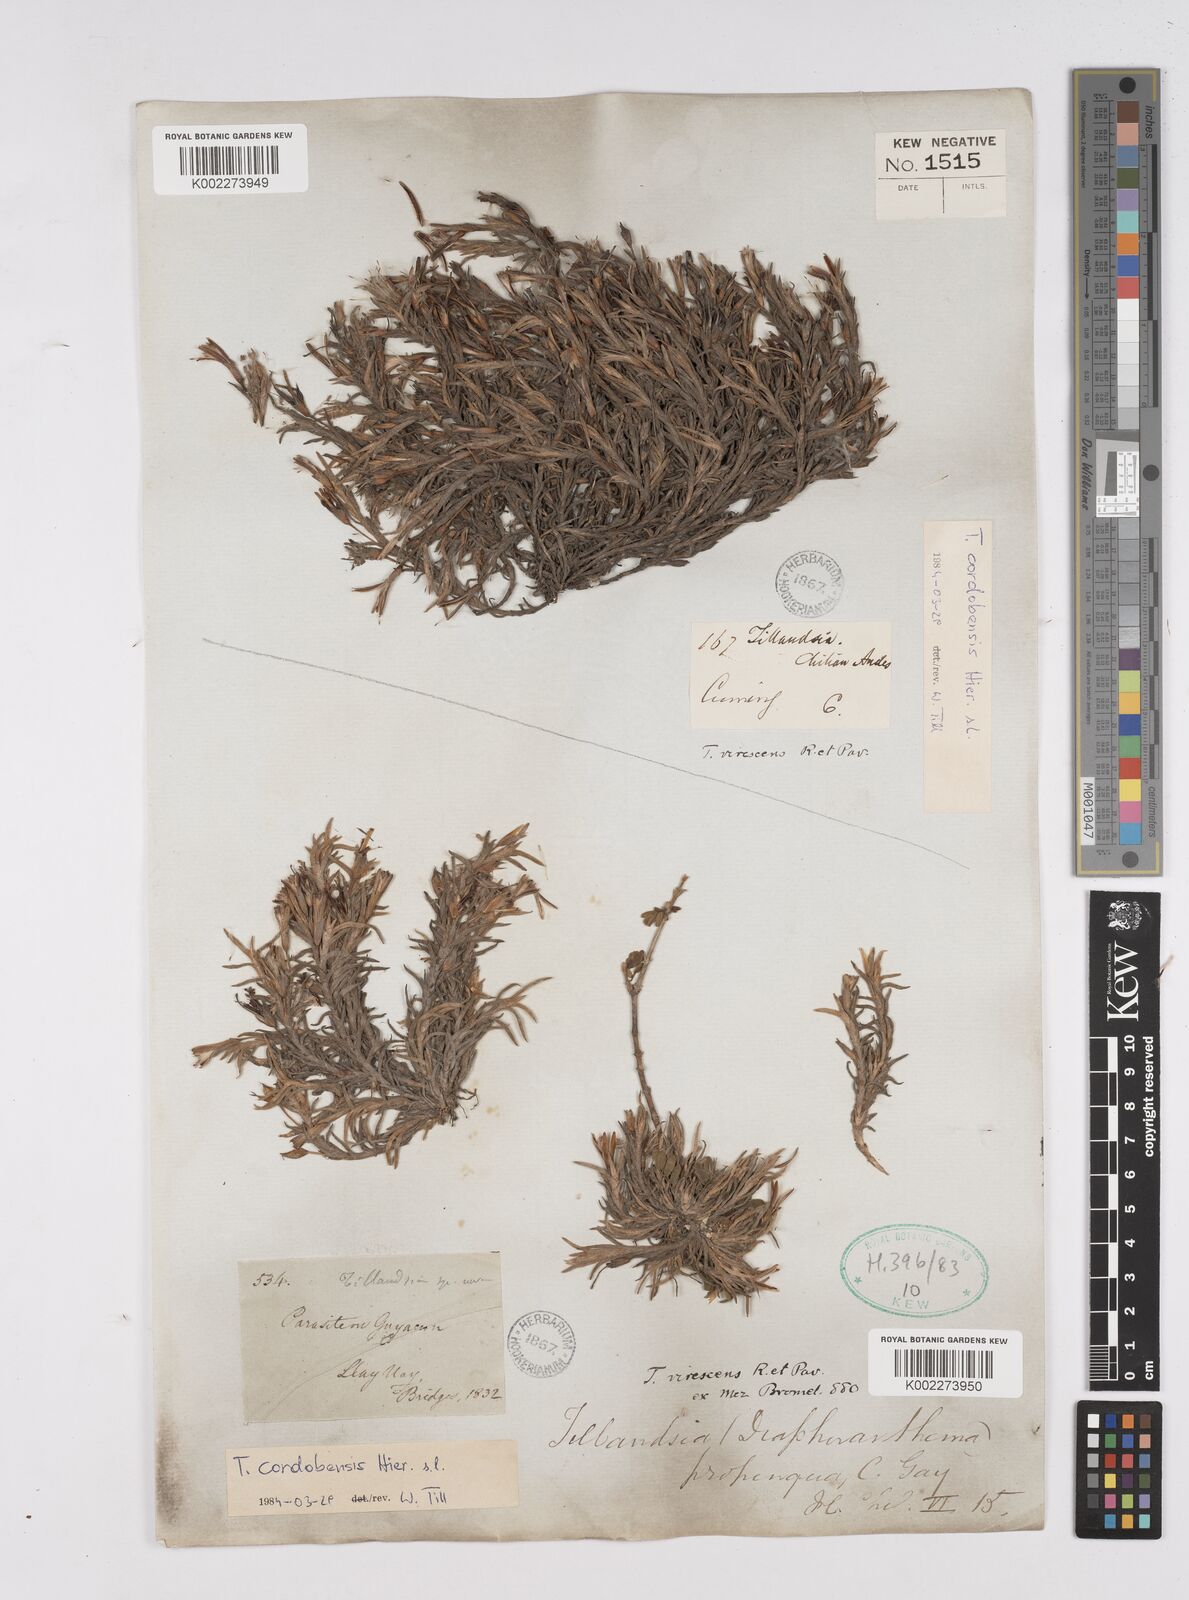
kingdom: Plantae
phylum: Tracheophyta
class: Liliopsida
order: Poales
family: Bromeliaceae
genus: Tillandsia
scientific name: Tillandsia virescens
